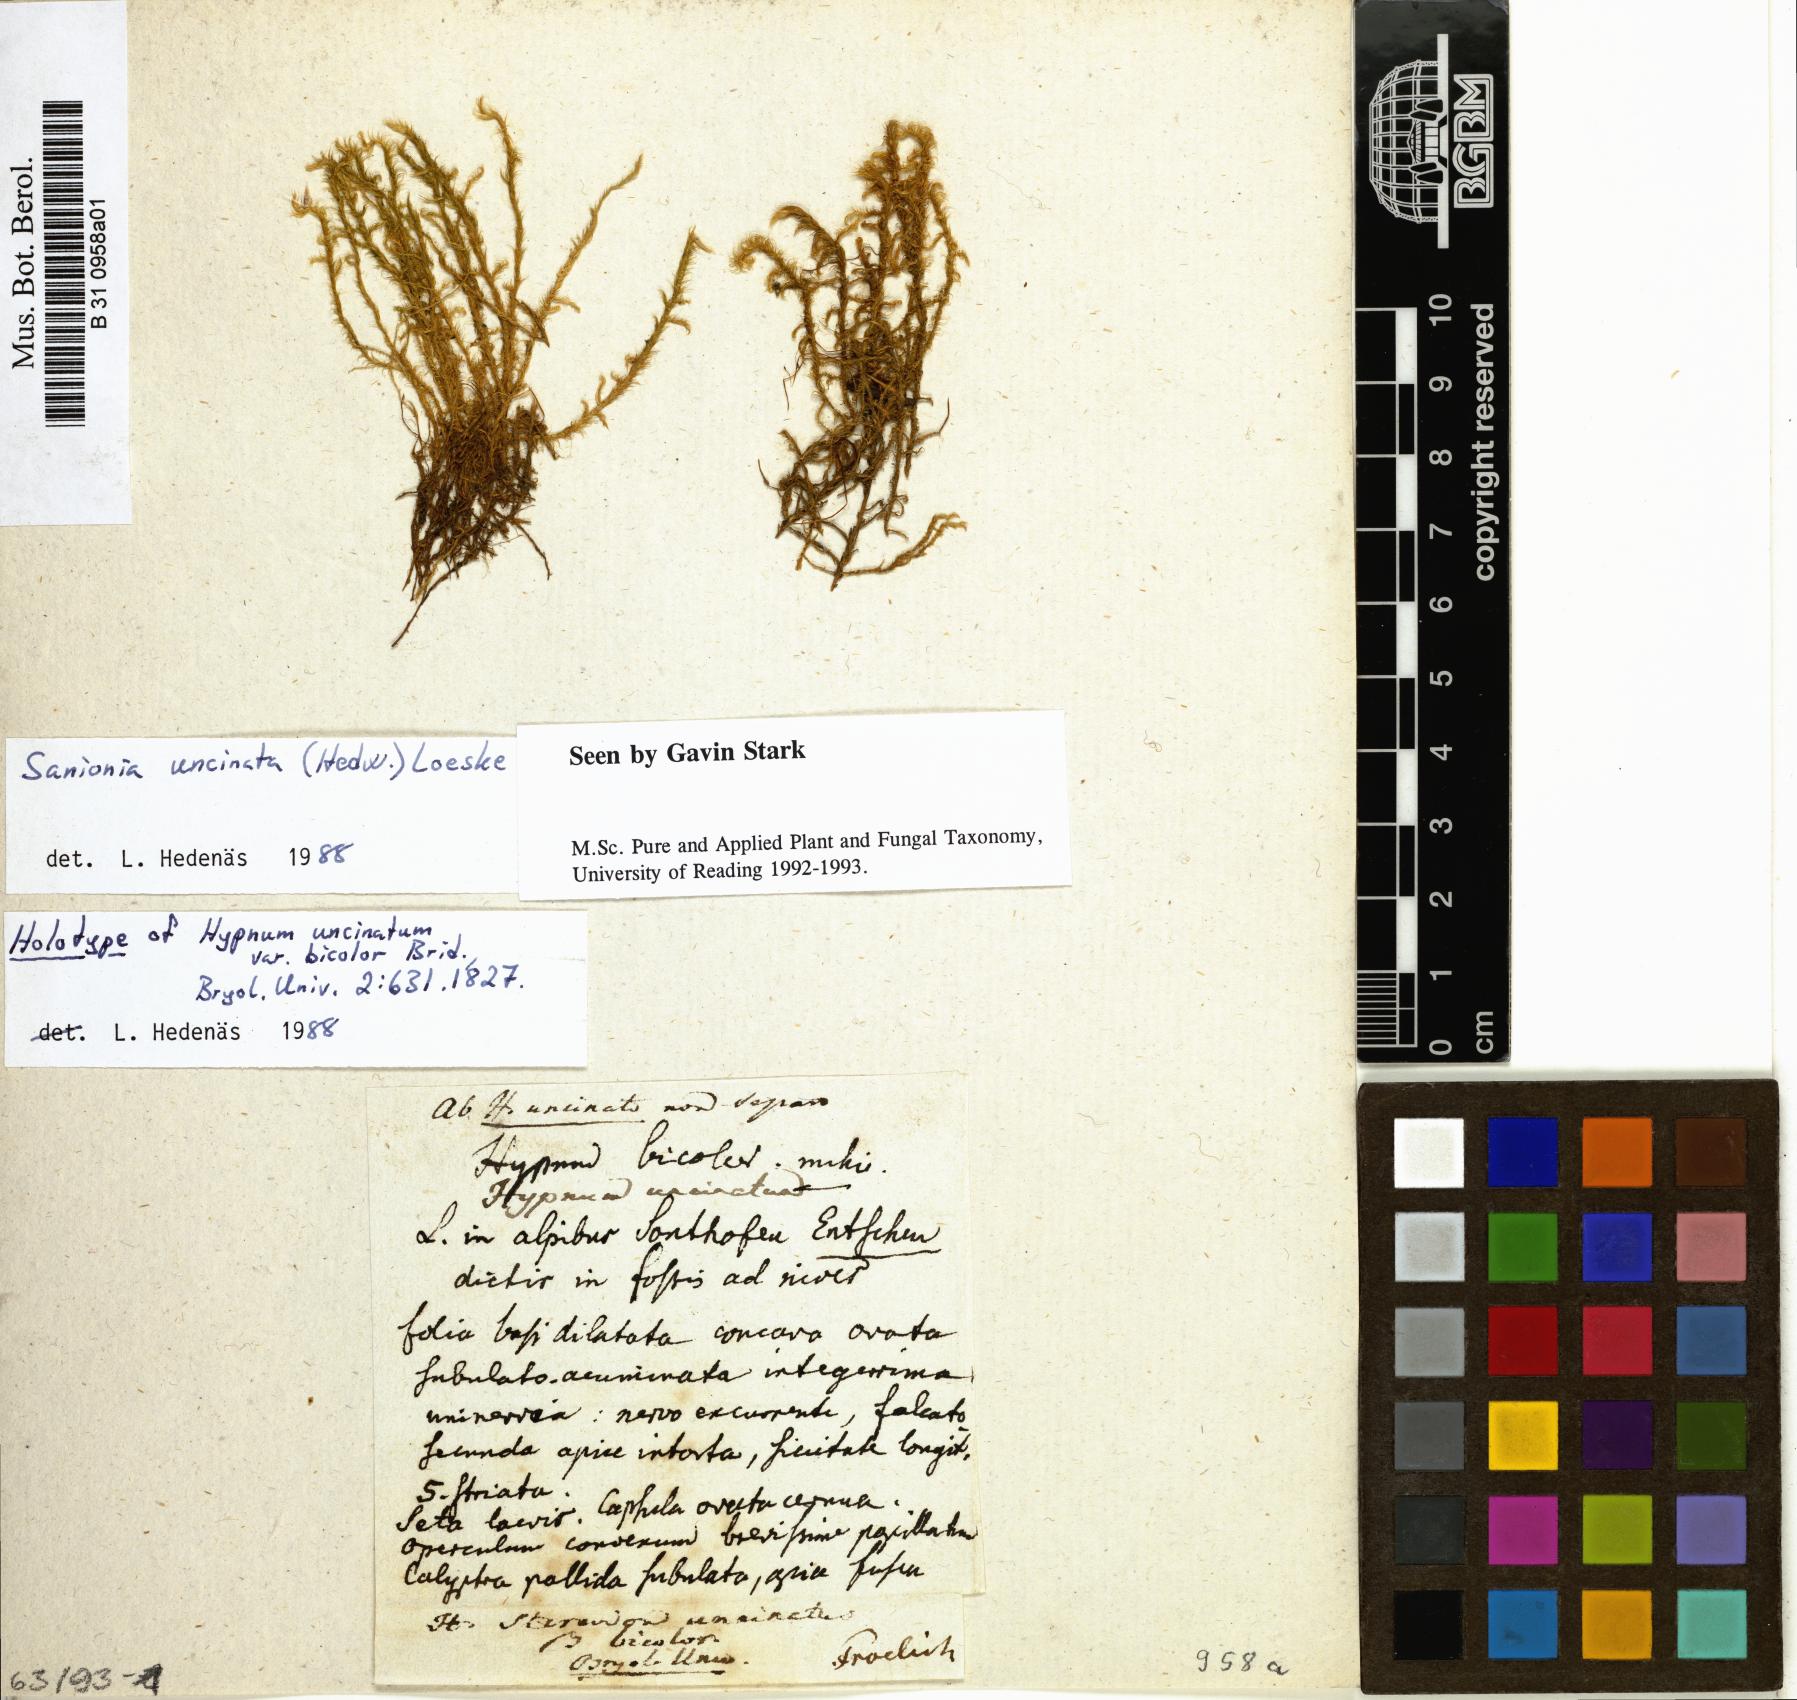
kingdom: Plantae
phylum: Bryophyta
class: Bryopsida
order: Hypnales
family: Scorpidiaceae
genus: Sanionia
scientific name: Sanionia uncinata
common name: Sickle moss
